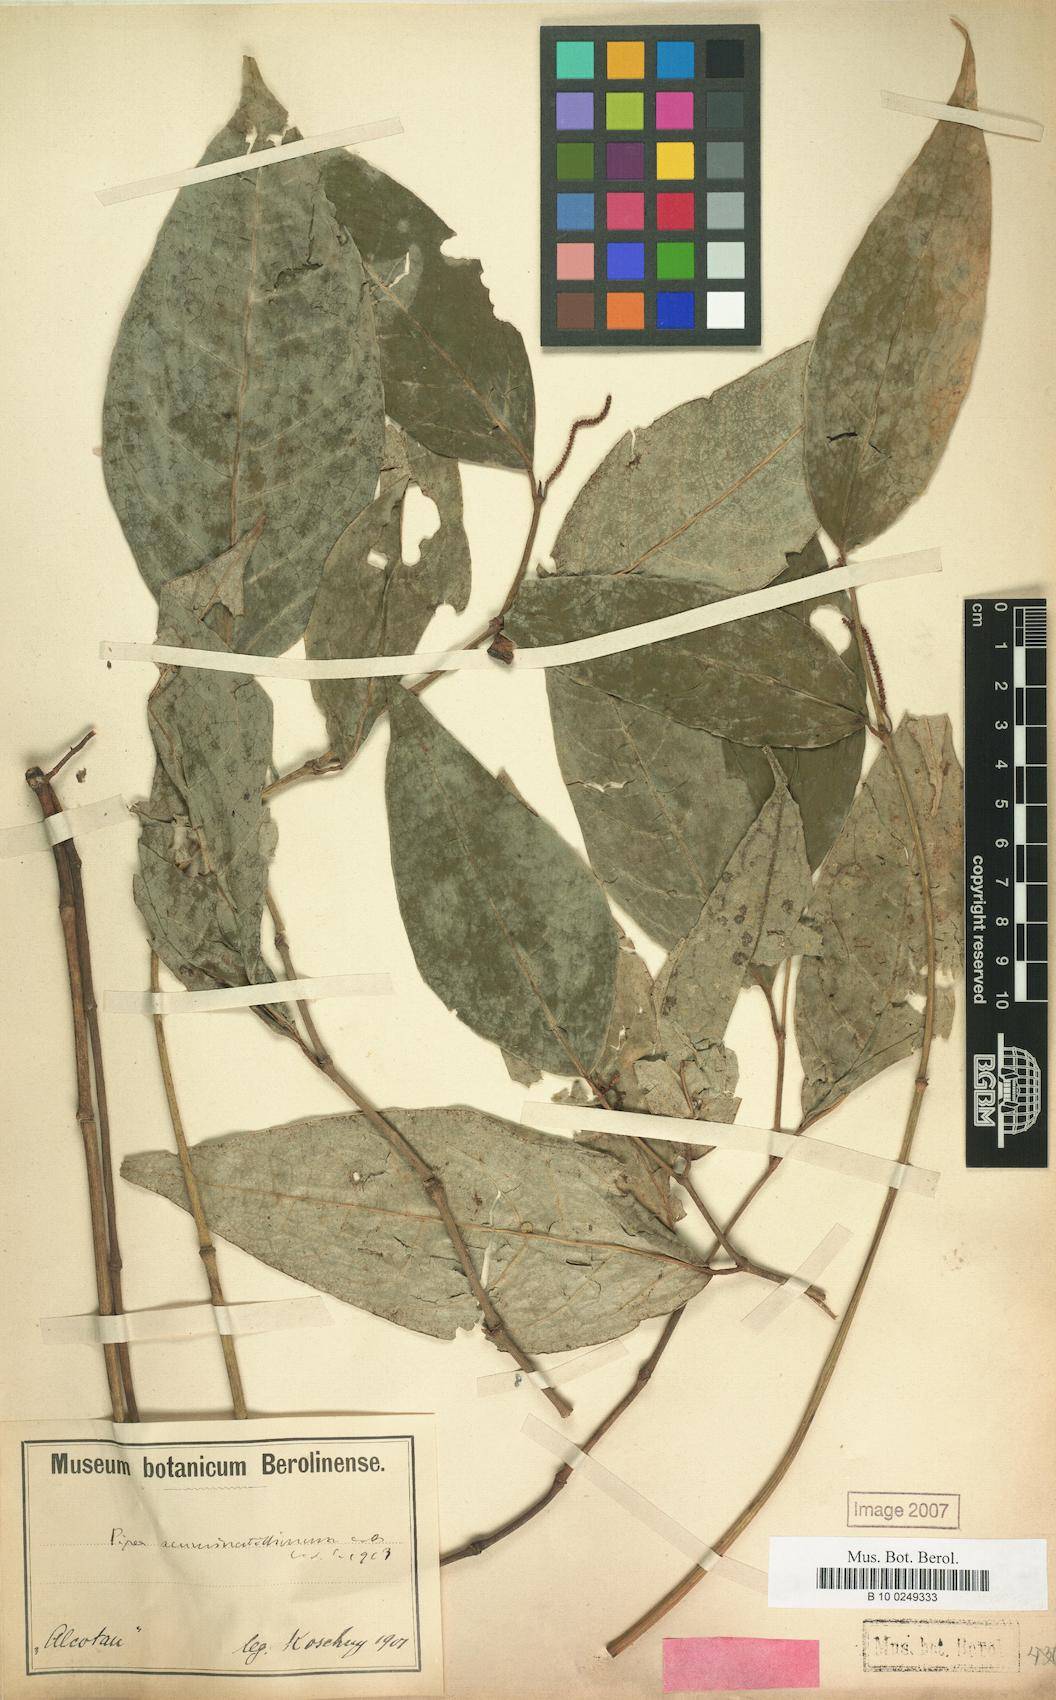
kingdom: Plantae
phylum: Tracheophyta
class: Magnoliopsida
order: Piperales
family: Piperaceae
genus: Piper
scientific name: Piper darienense
